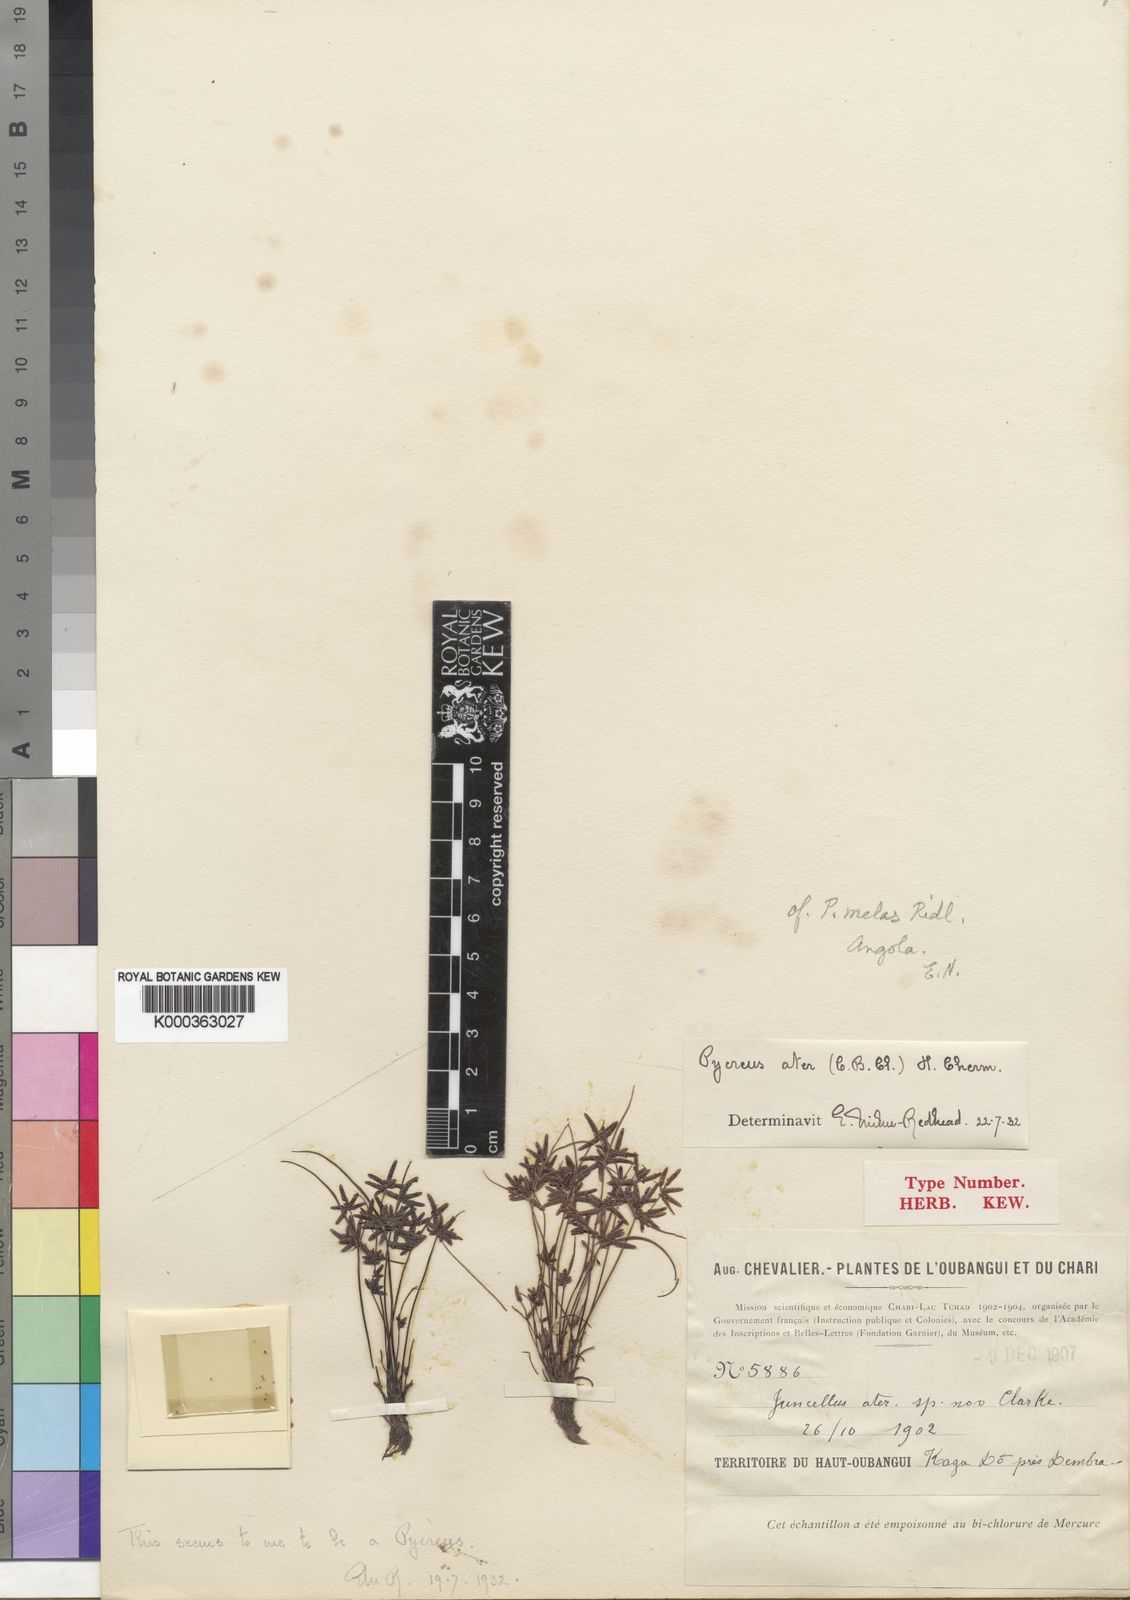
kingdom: Plantae
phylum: Tracheophyta
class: Liliopsida
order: Poales
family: Cyperaceae
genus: Cyperus
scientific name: Cyperus melas
